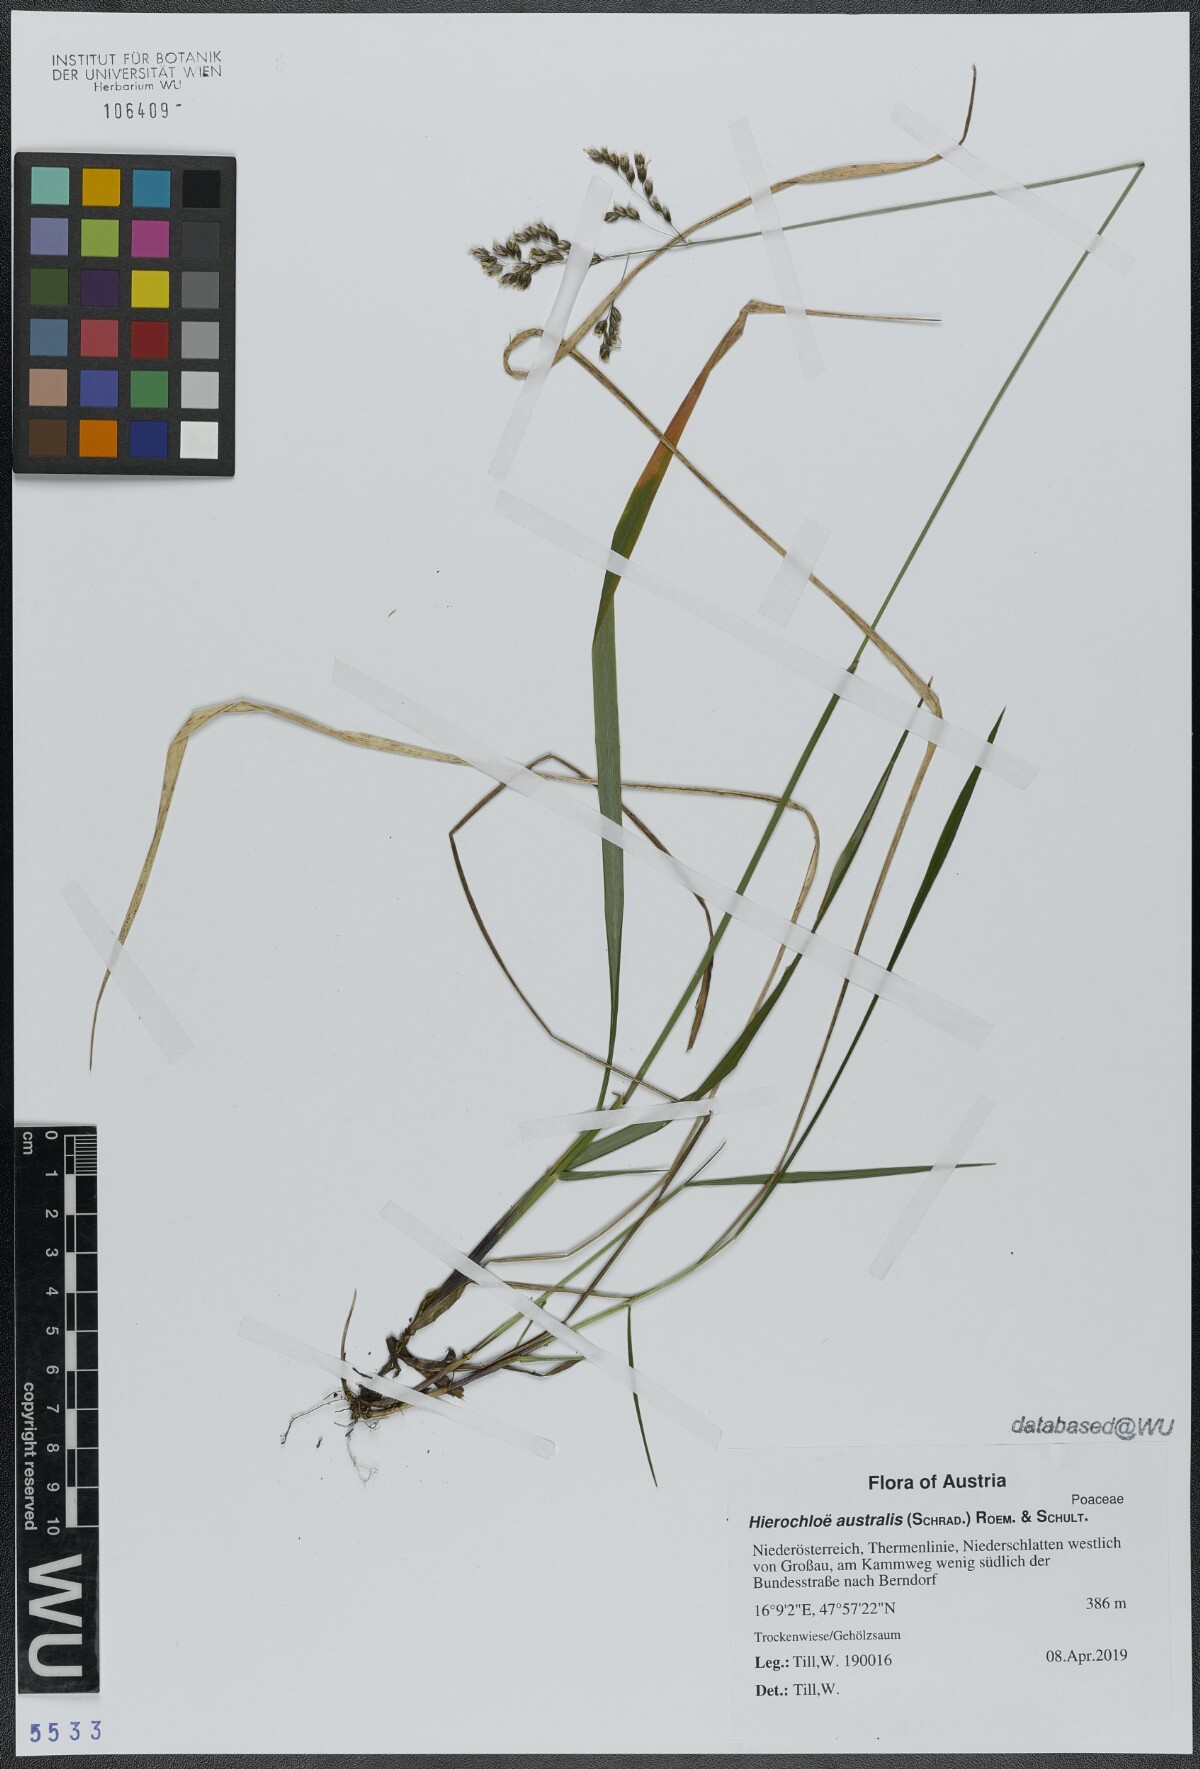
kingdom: Plantae
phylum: Tracheophyta
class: Liliopsida
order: Poales
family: Poaceae
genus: Anthoxanthum
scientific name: Anthoxanthum australe
